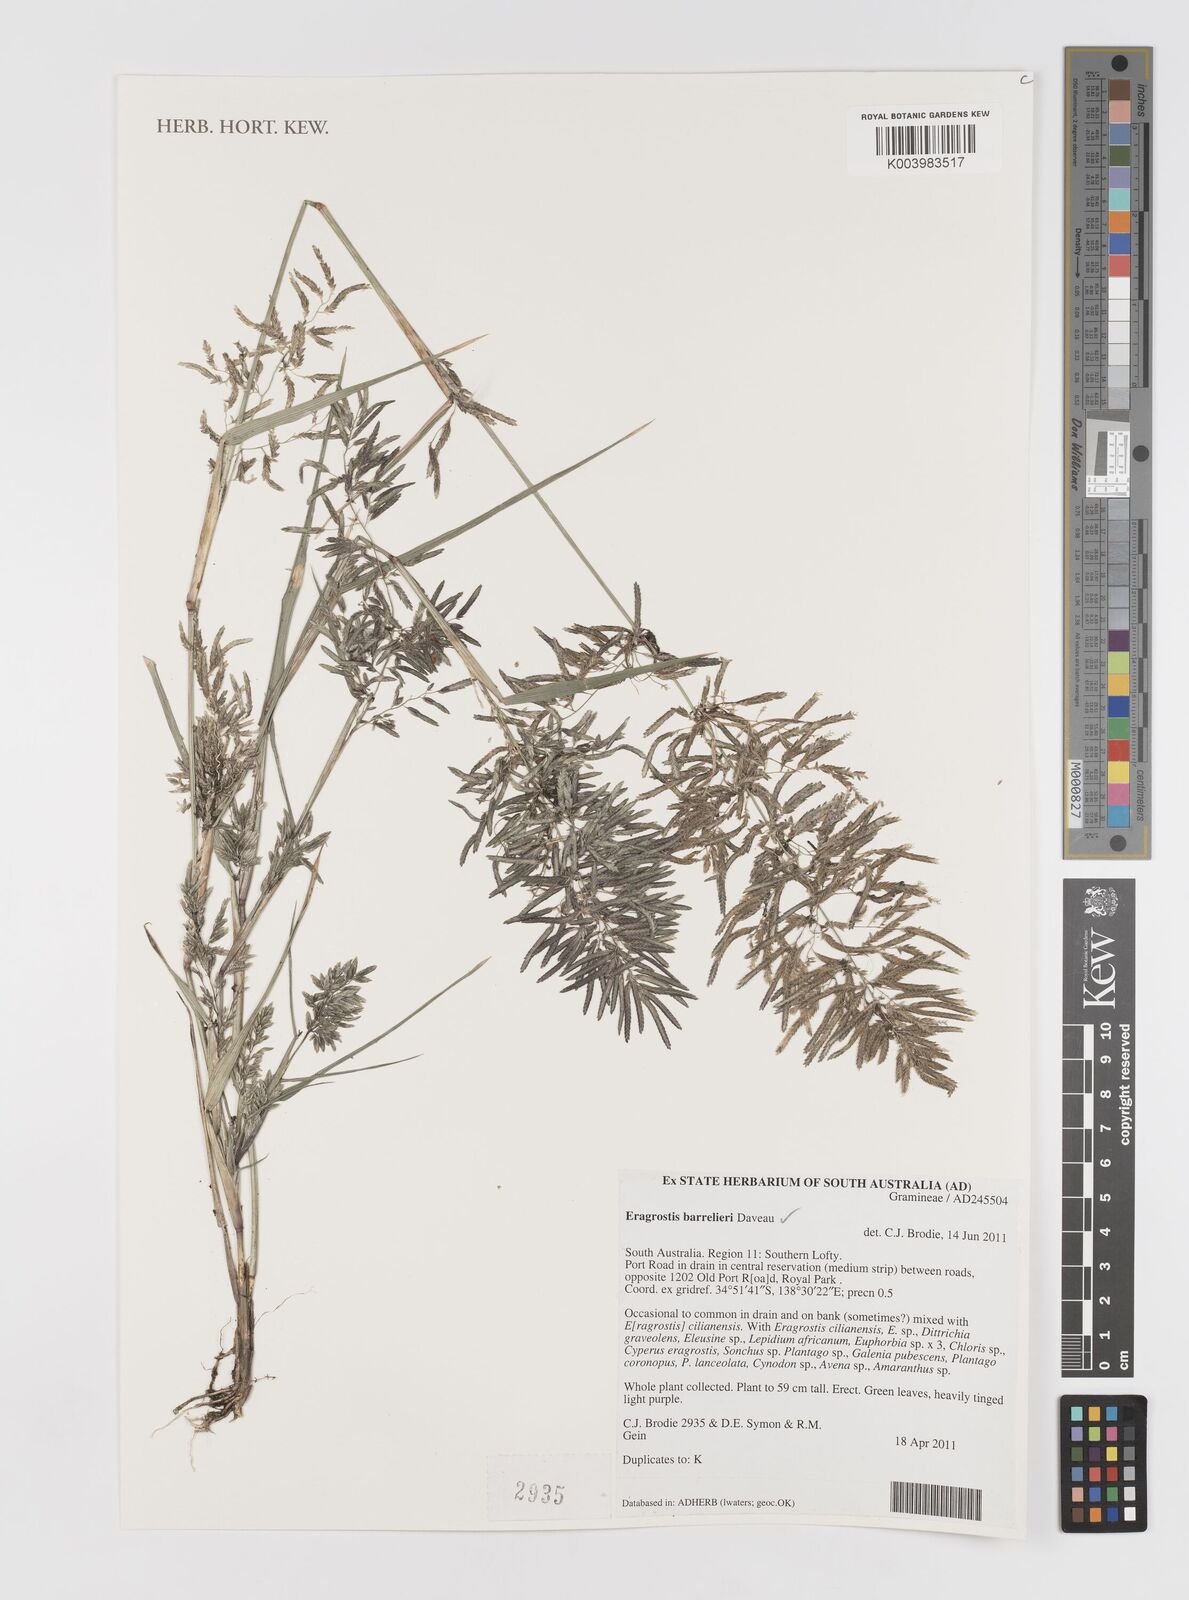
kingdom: Plantae
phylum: Tracheophyta
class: Liliopsida
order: Poales
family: Poaceae
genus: Eragrostis
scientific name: Eragrostis barrelieri
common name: Mediterranean lovegrass
